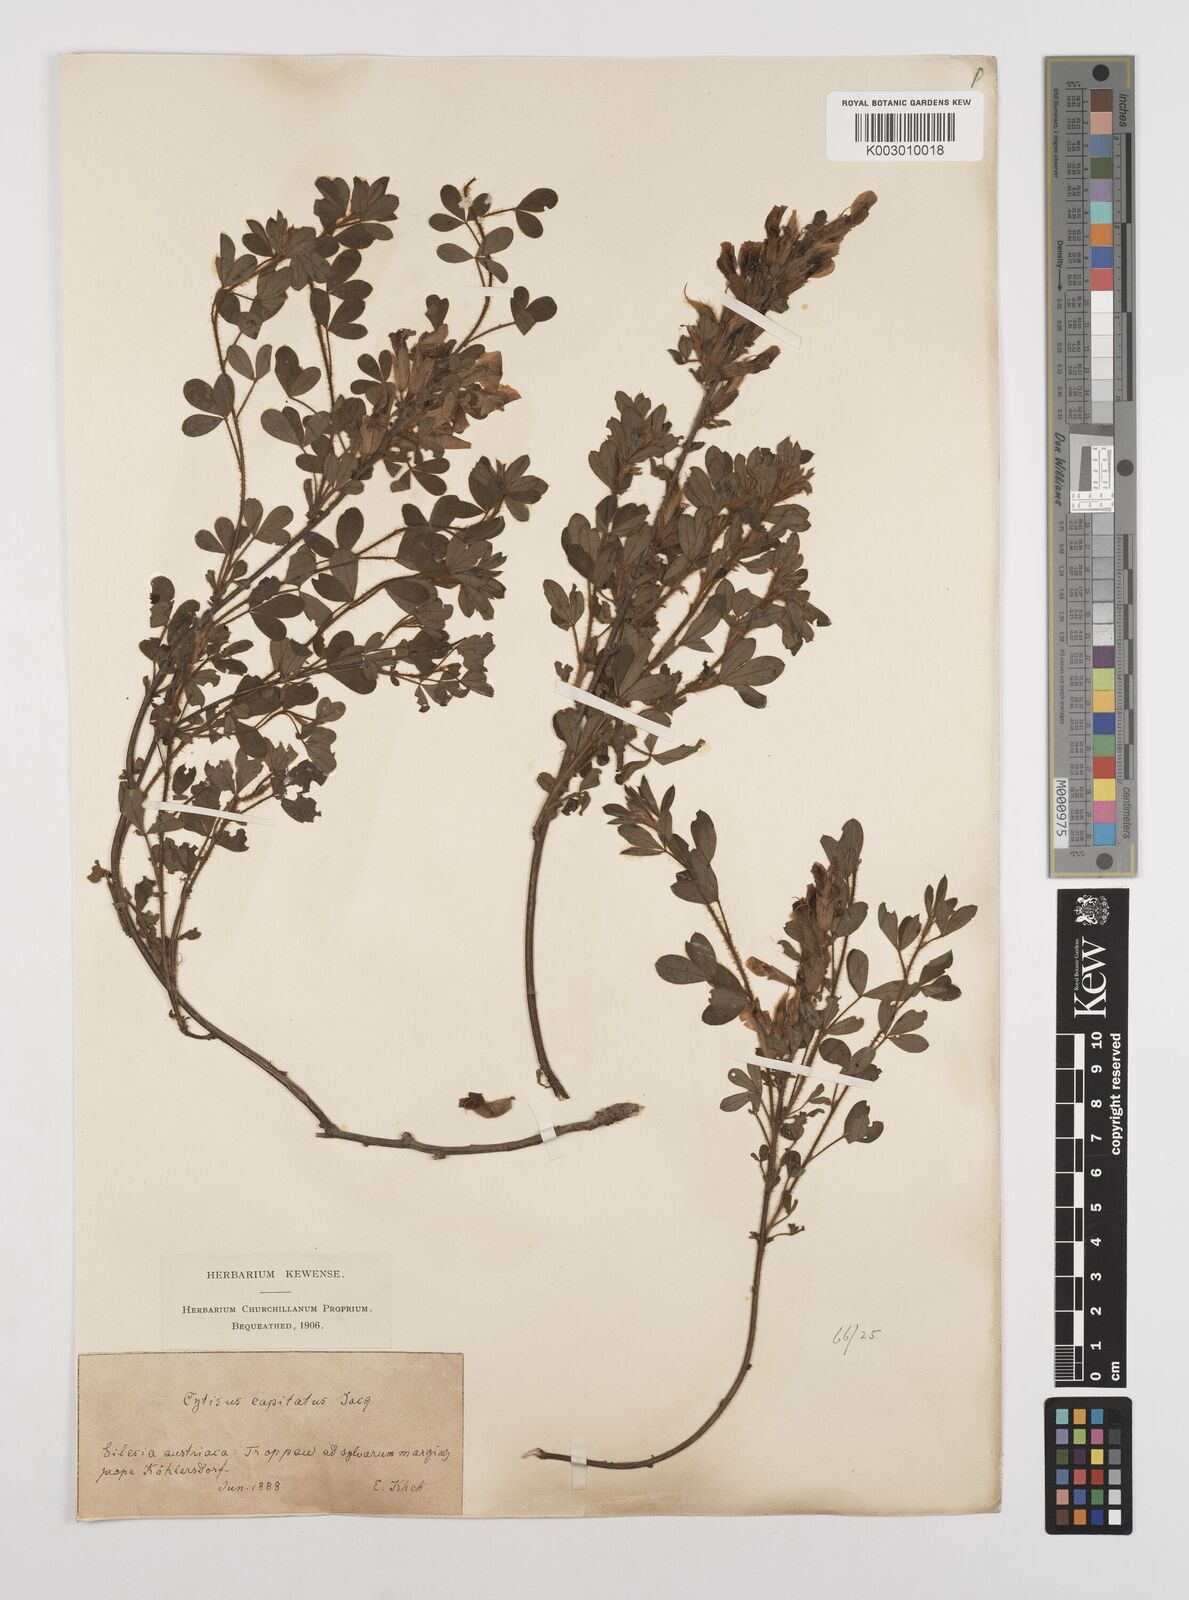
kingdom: Plantae
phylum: Tracheophyta
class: Magnoliopsida
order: Fabales
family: Fabaceae
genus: Chamaecytisus
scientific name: Chamaecytisus hirsutus
